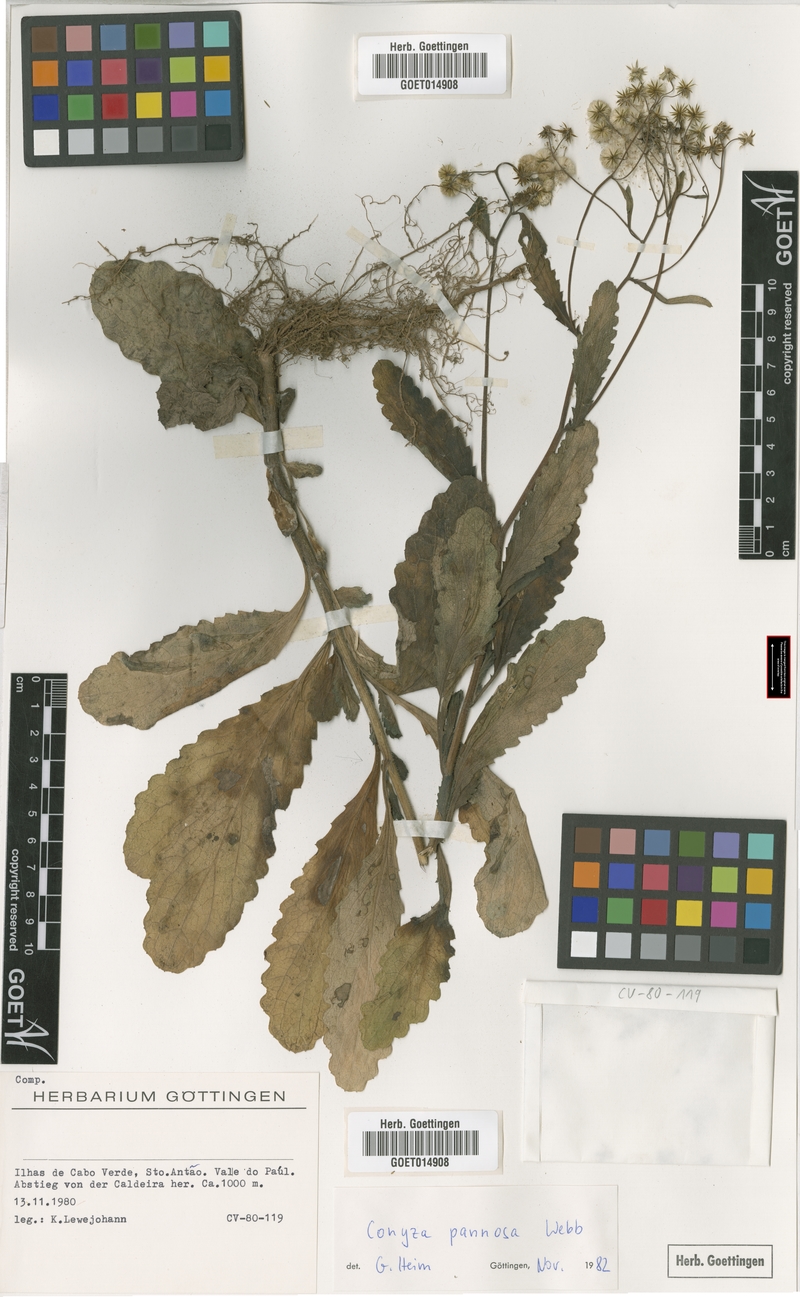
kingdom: Plantae
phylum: Tracheophyta
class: Magnoliopsida
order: Asterales
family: Asteraceae
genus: Conyza
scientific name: Conyza pannosa
